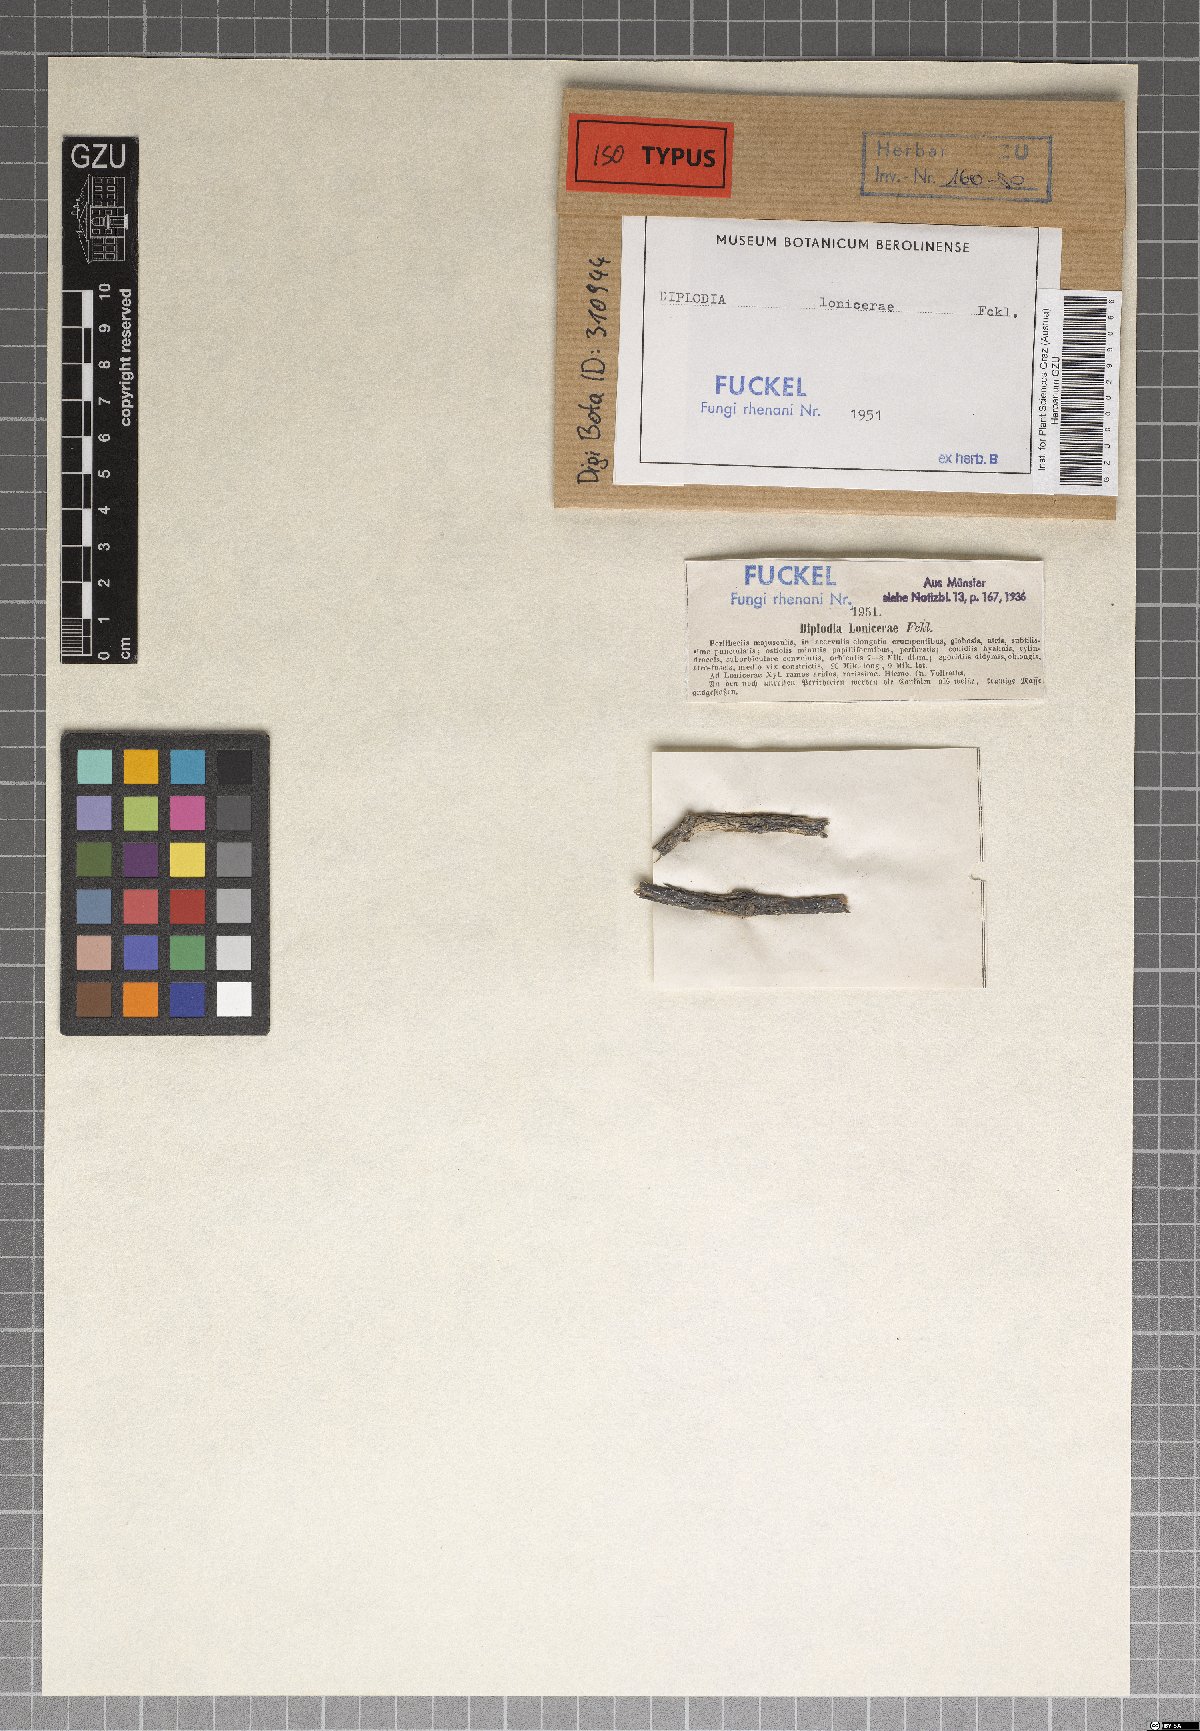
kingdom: Fungi
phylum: Ascomycota
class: Dothideomycetes
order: Botryosphaeriales
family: Botryosphaeriaceae
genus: Diplodia
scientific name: Diplodia lonicerae
